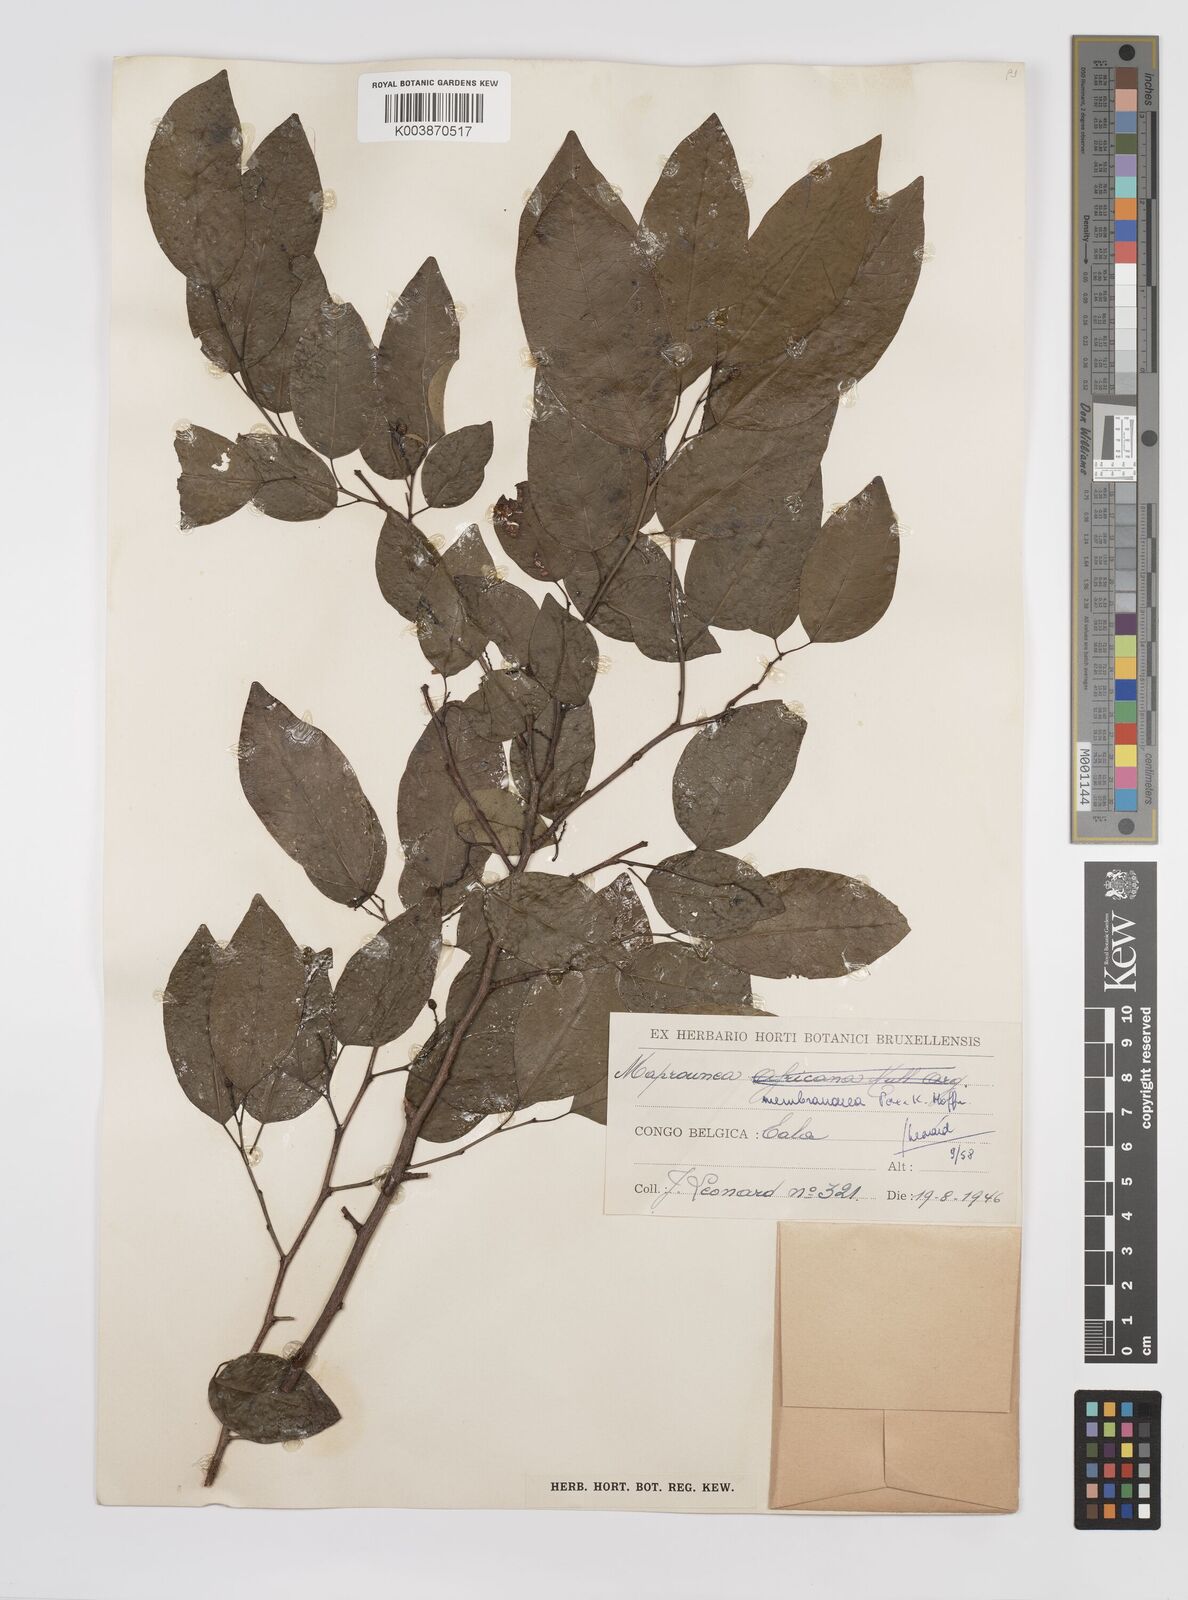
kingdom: Plantae
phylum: Tracheophyta
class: Magnoliopsida
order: Malpighiales
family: Euphorbiaceae
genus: Maprounea
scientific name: Maprounea membranacea
